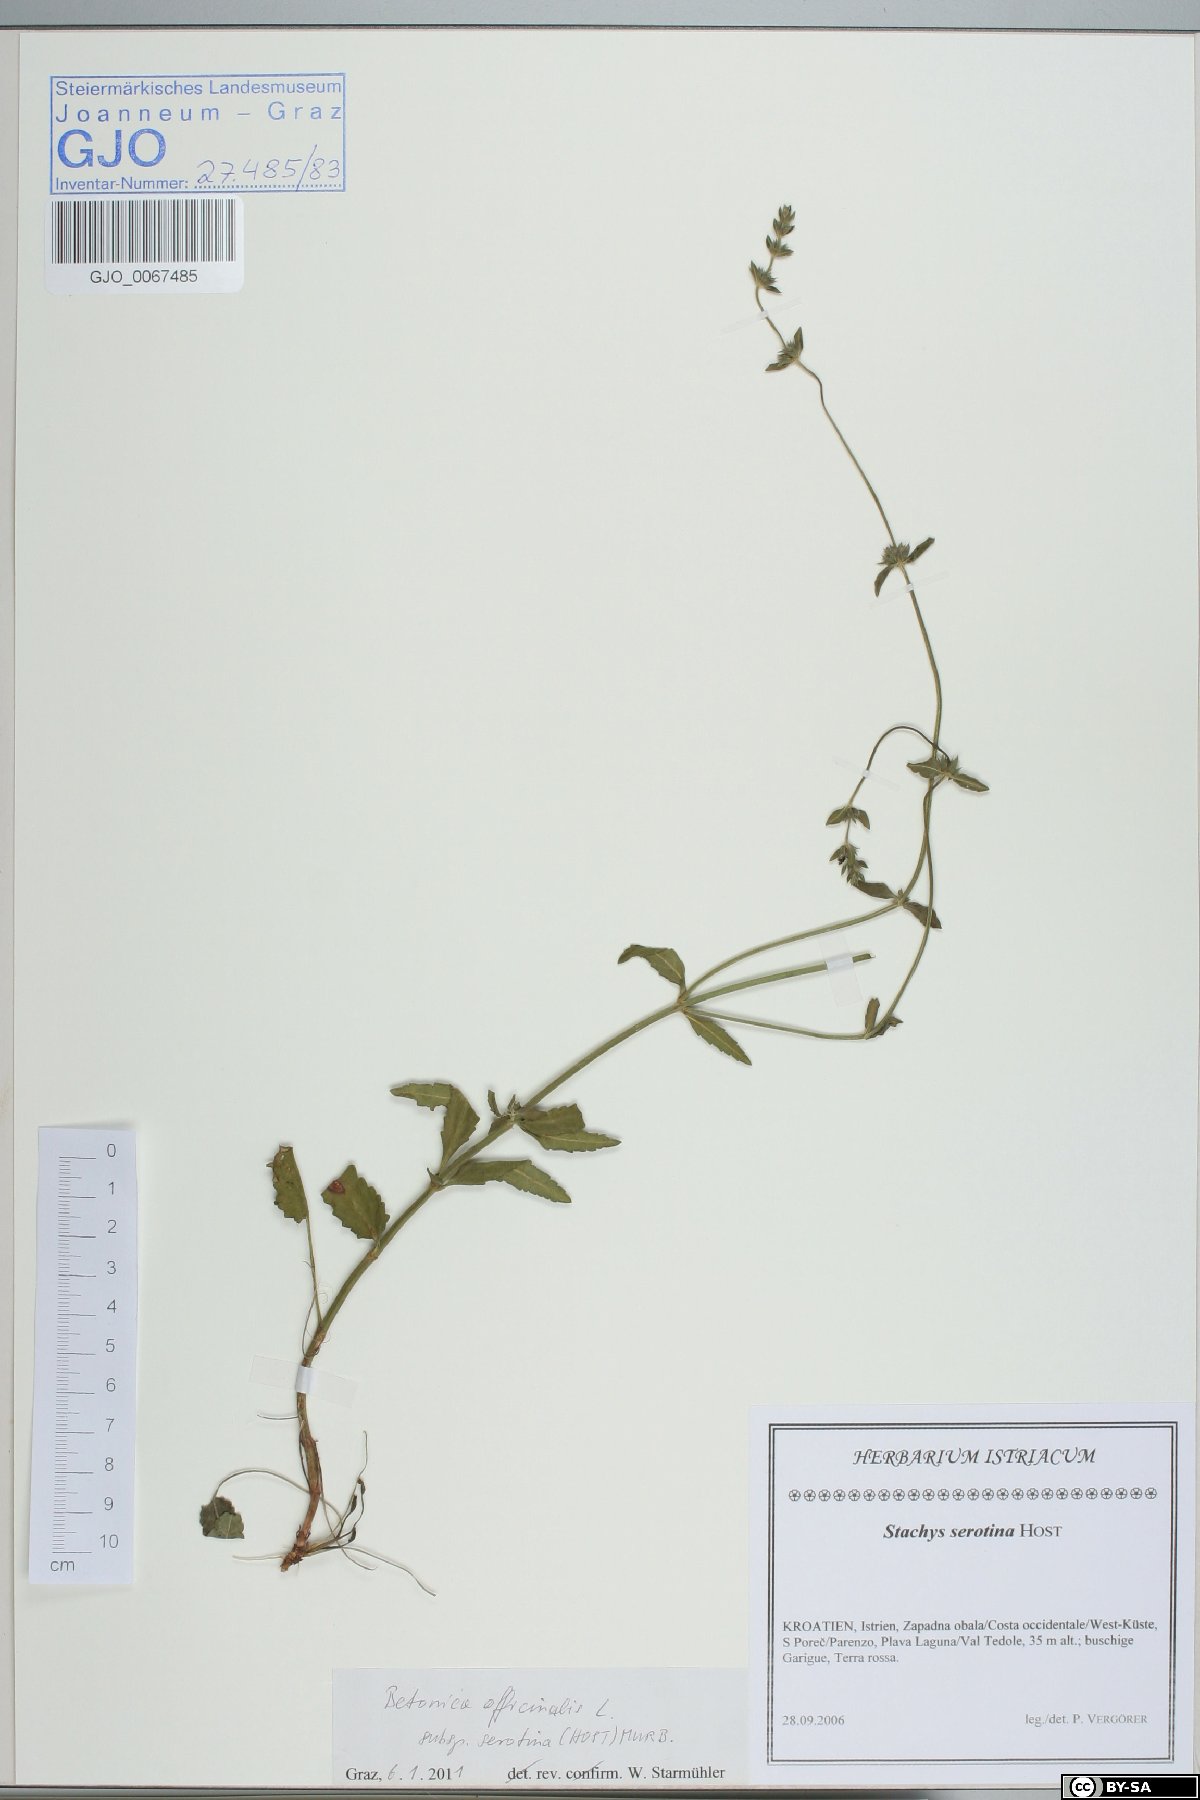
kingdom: Plantae
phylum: Tracheophyta
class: Magnoliopsida
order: Lamiales
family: Lamiaceae
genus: Betonica
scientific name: Betonica officinalis
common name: Bishop's-wort
